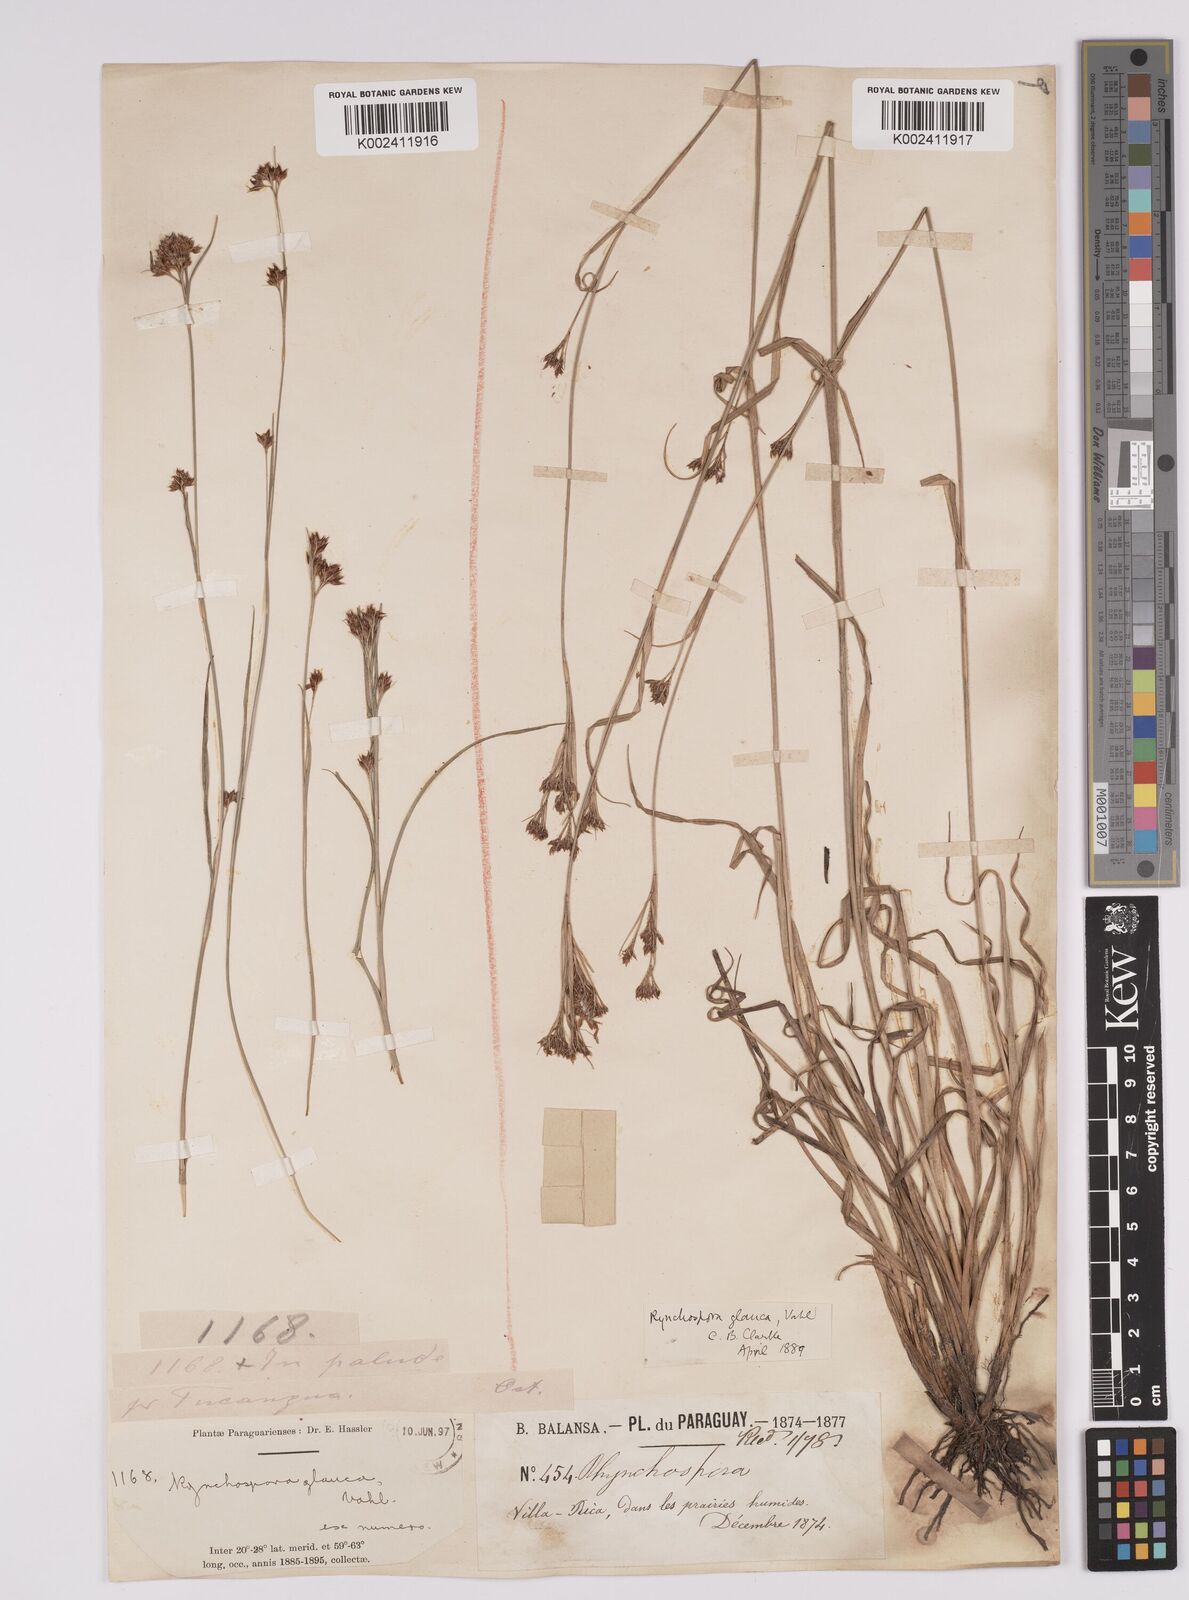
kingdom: Plantae
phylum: Tracheophyta
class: Liliopsida
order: Poales
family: Cyperaceae
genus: Rhynchospora
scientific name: Rhynchospora rugosa
